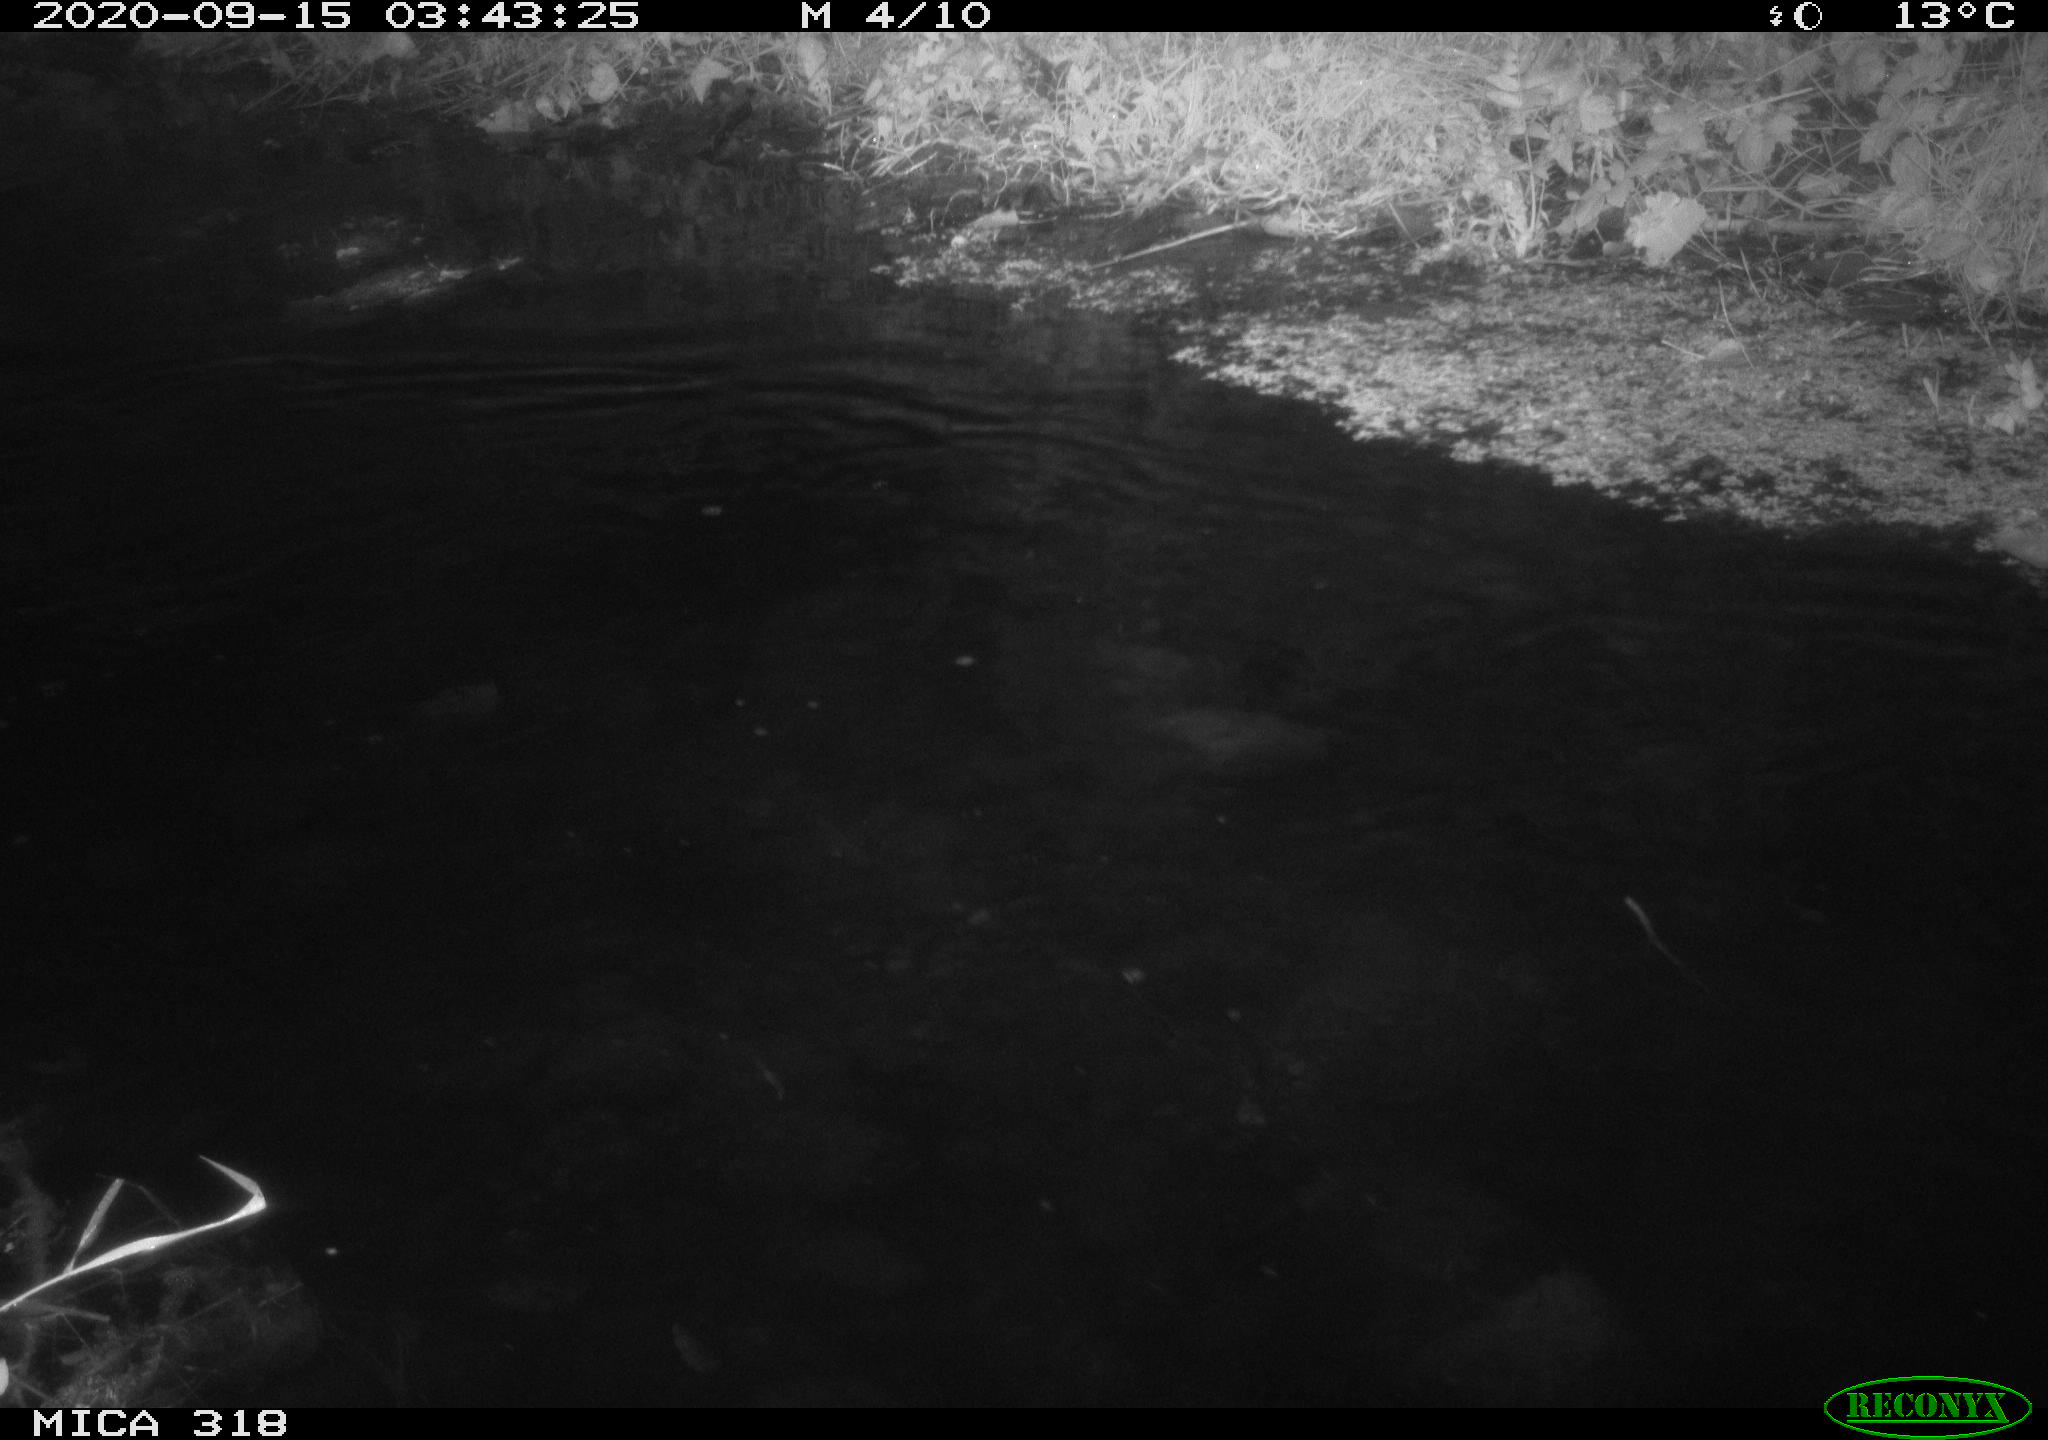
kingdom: Animalia
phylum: Chordata
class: Aves
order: Anseriformes
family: Anatidae
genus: Anas
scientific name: Anas platyrhynchos
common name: Mallard
